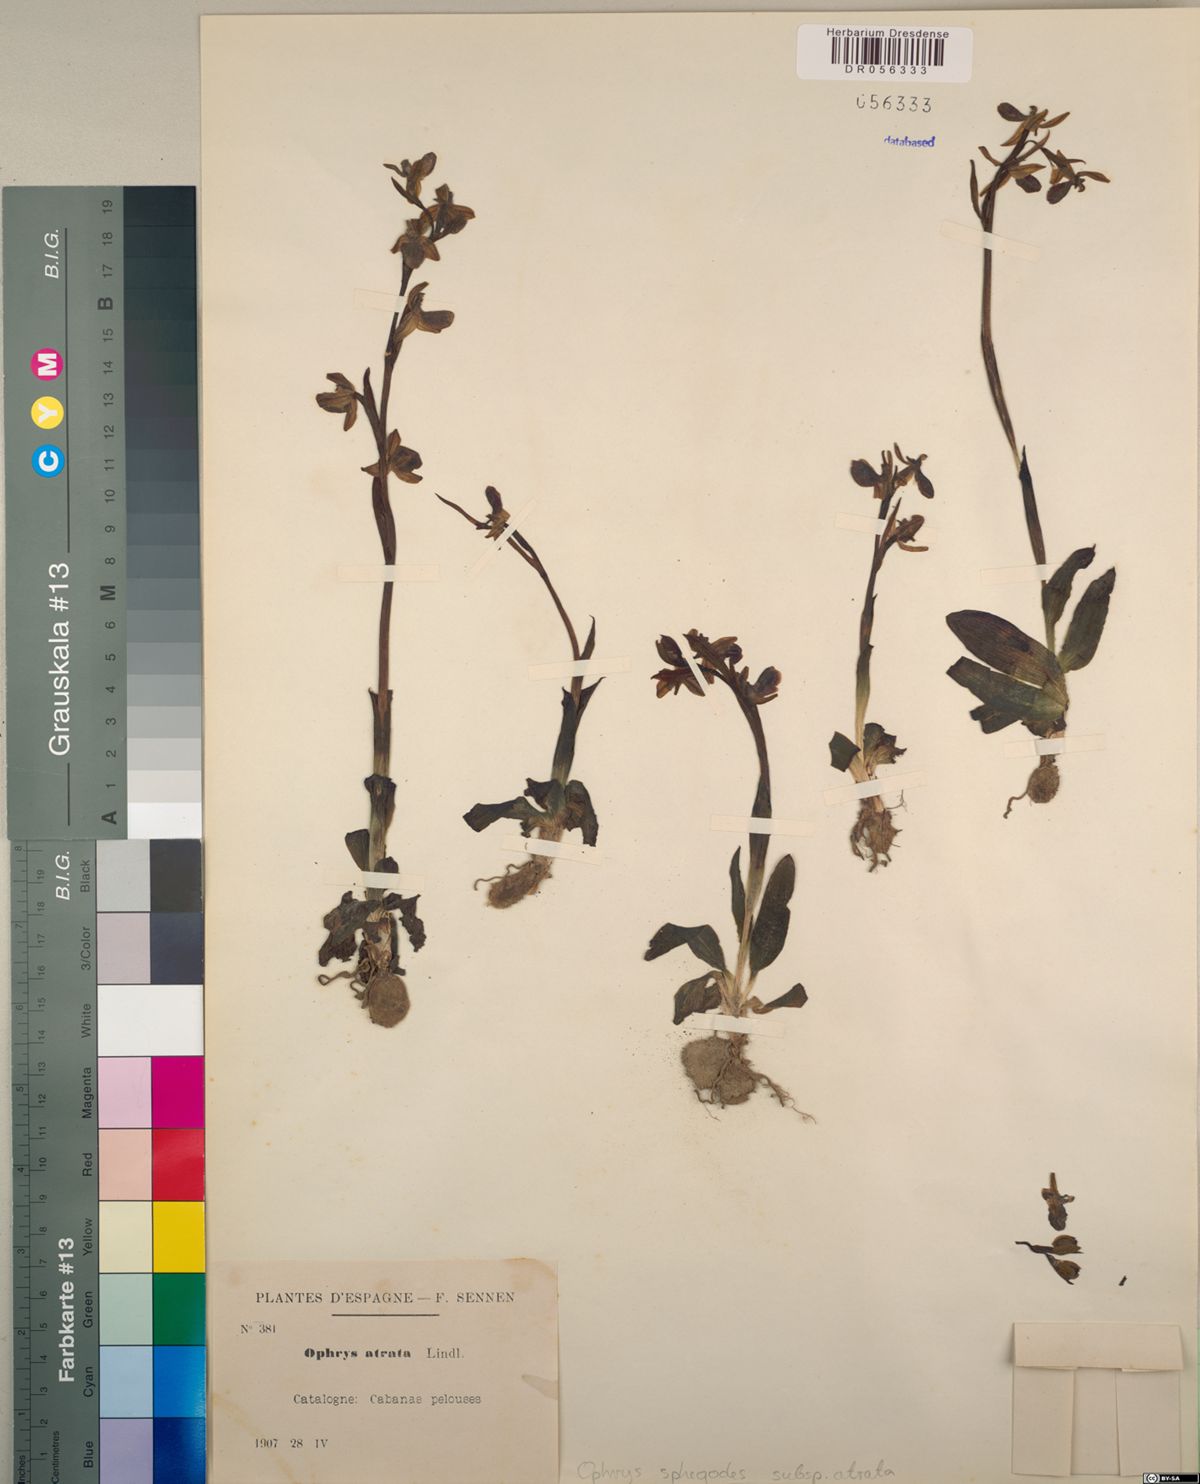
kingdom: Plantae
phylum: Tracheophyta
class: Liliopsida
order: Asparagales
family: Orchidaceae
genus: Ophrys
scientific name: Ophrys sphegodes
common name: Early spider-orchid
